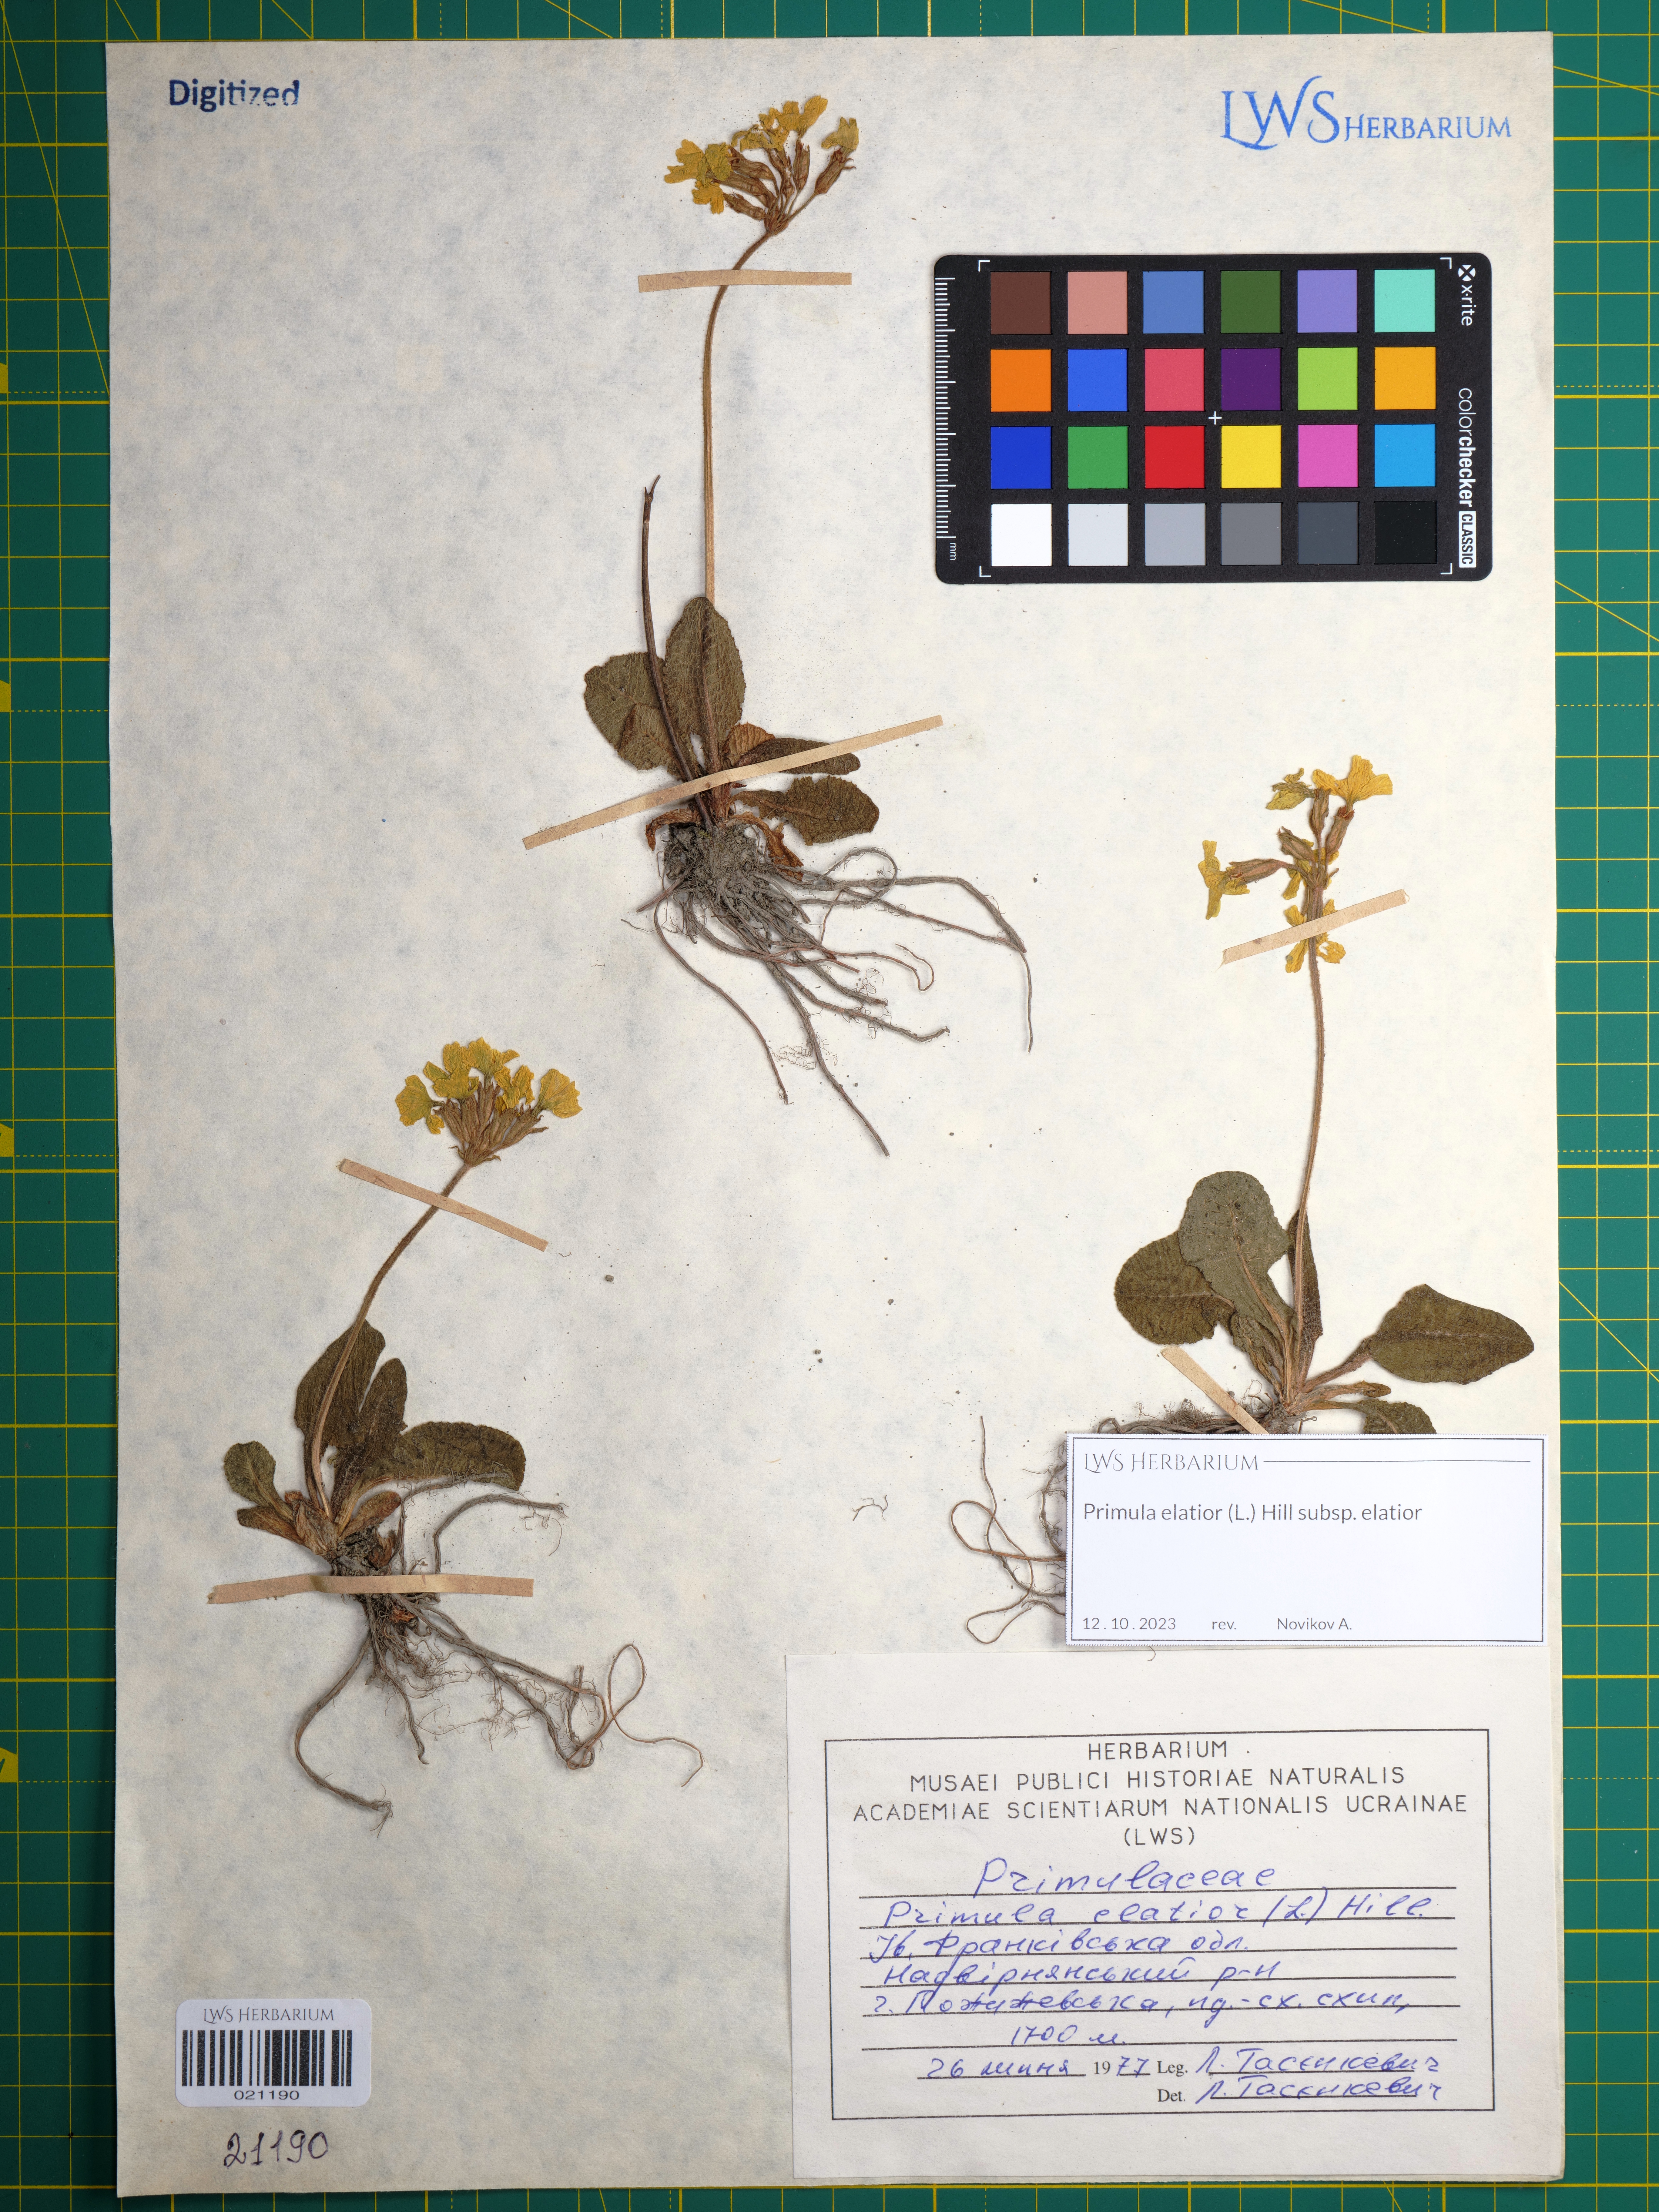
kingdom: Plantae
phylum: Tracheophyta
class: Magnoliopsida
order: Ericales
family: Primulaceae
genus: Primula
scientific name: Primula elatior
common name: Oxlip
